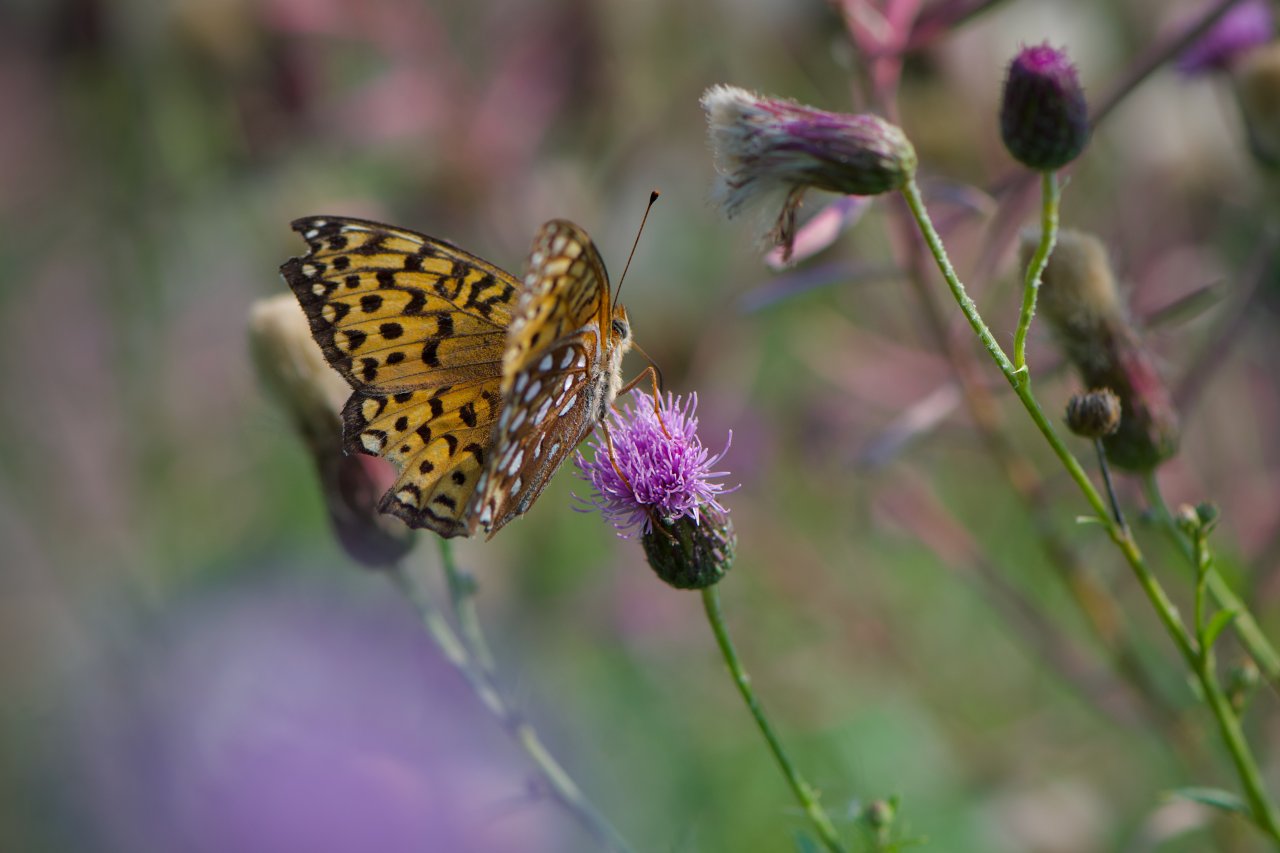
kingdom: Animalia
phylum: Arthropoda
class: Insecta
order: Lepidoptera
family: Nymphalidae
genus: Speyeria
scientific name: Speyeria atlantis
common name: Atlantis Fritillary
